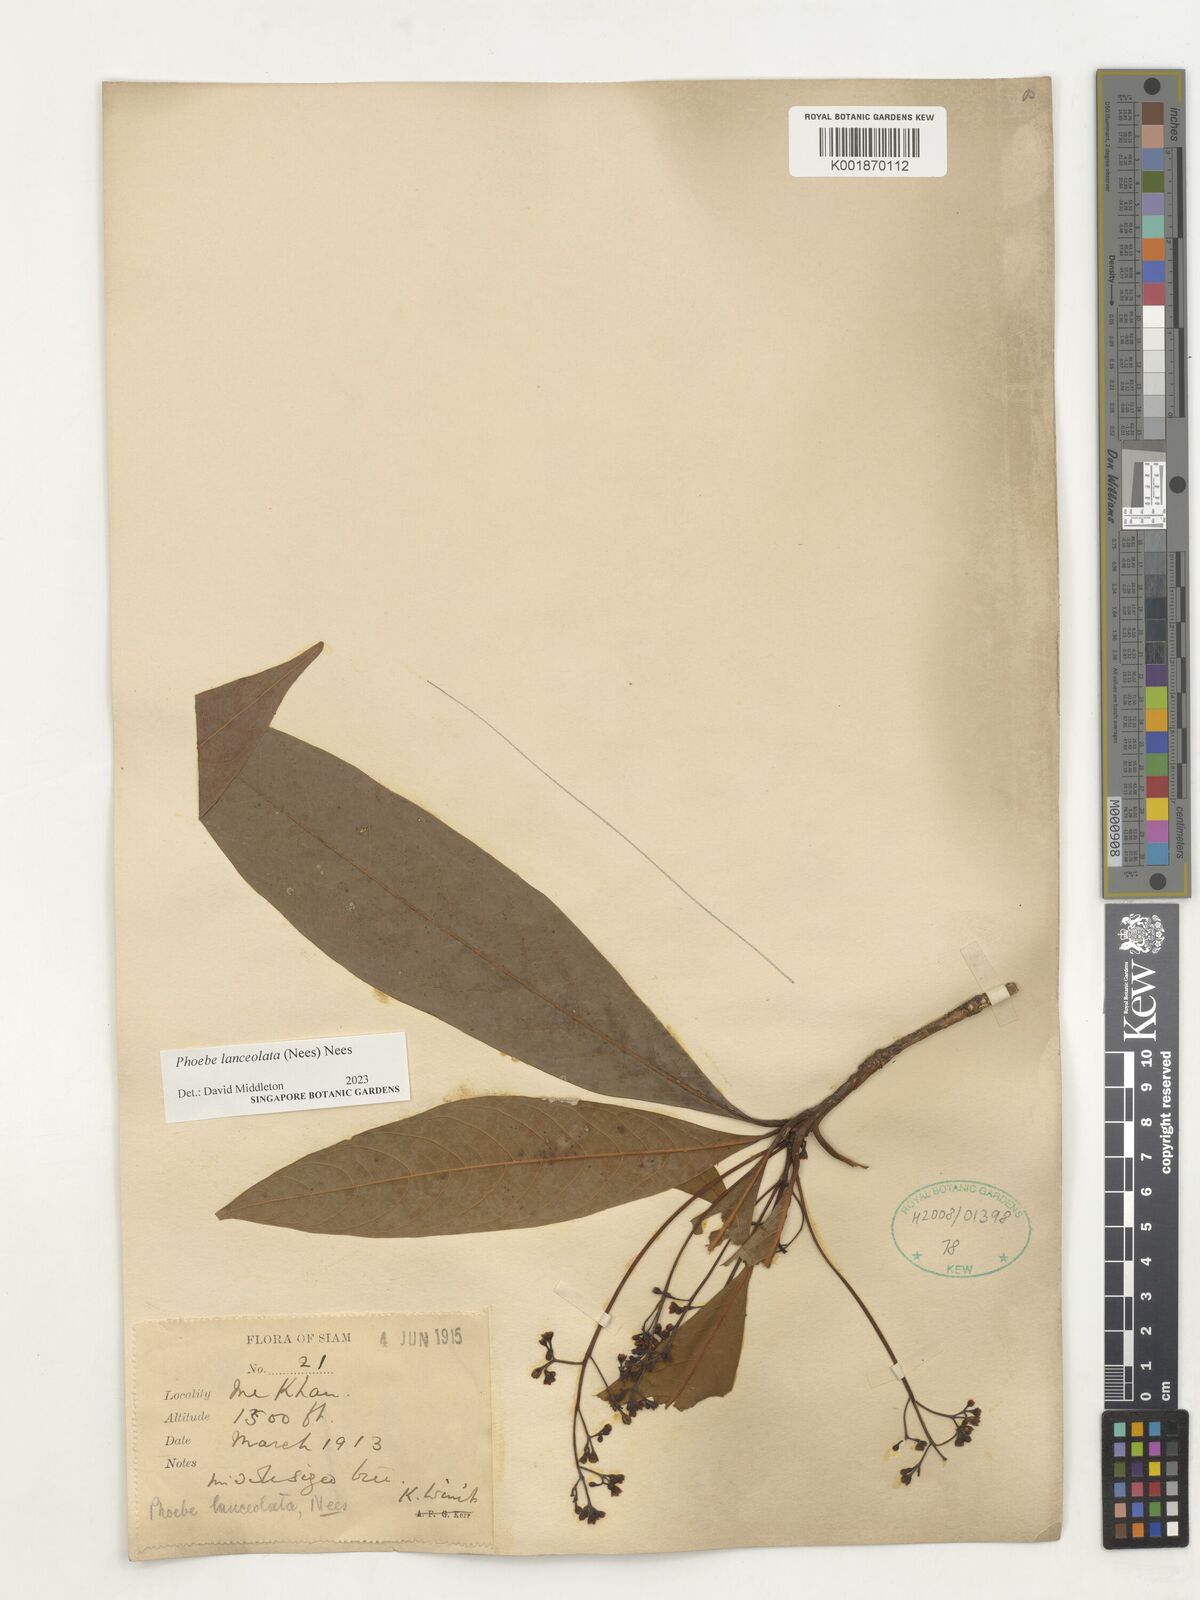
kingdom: Plantae
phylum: Tracheophyta
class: Magnoliopsida
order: Laurales
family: Lauraceae
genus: Phoebe
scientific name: Phoebe lanceolata
